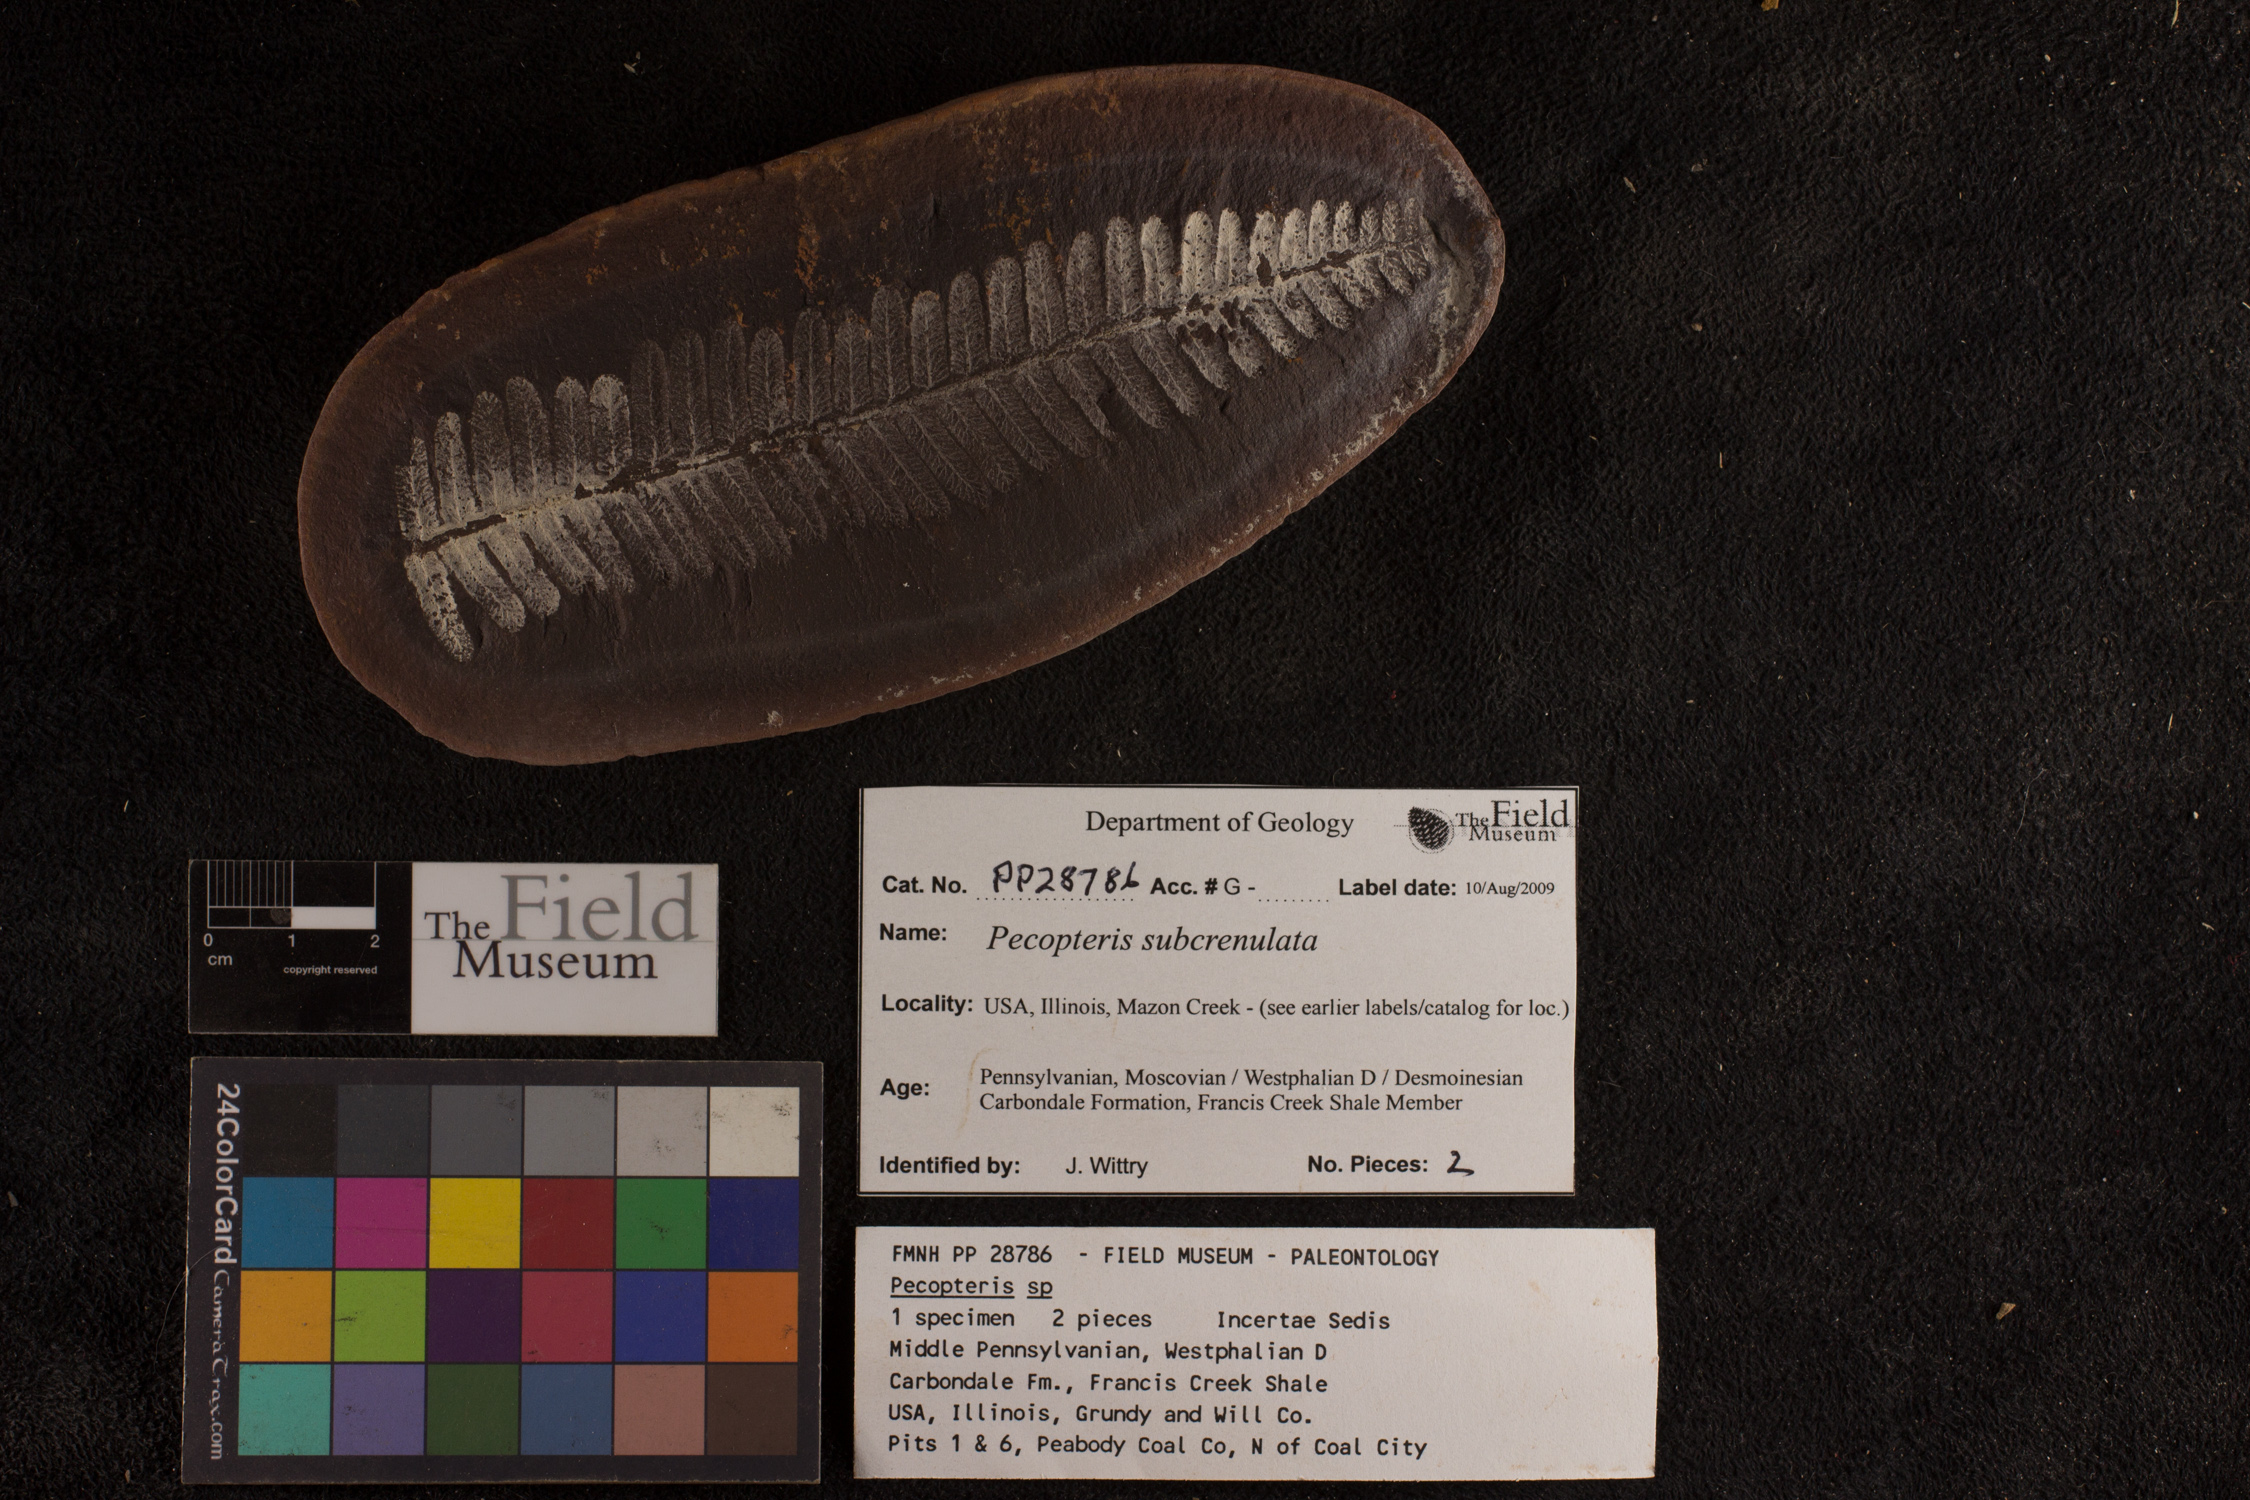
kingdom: Plantae
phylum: Tracheophyta
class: Polypodiopsida
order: Marattiales
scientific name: Marattiales
